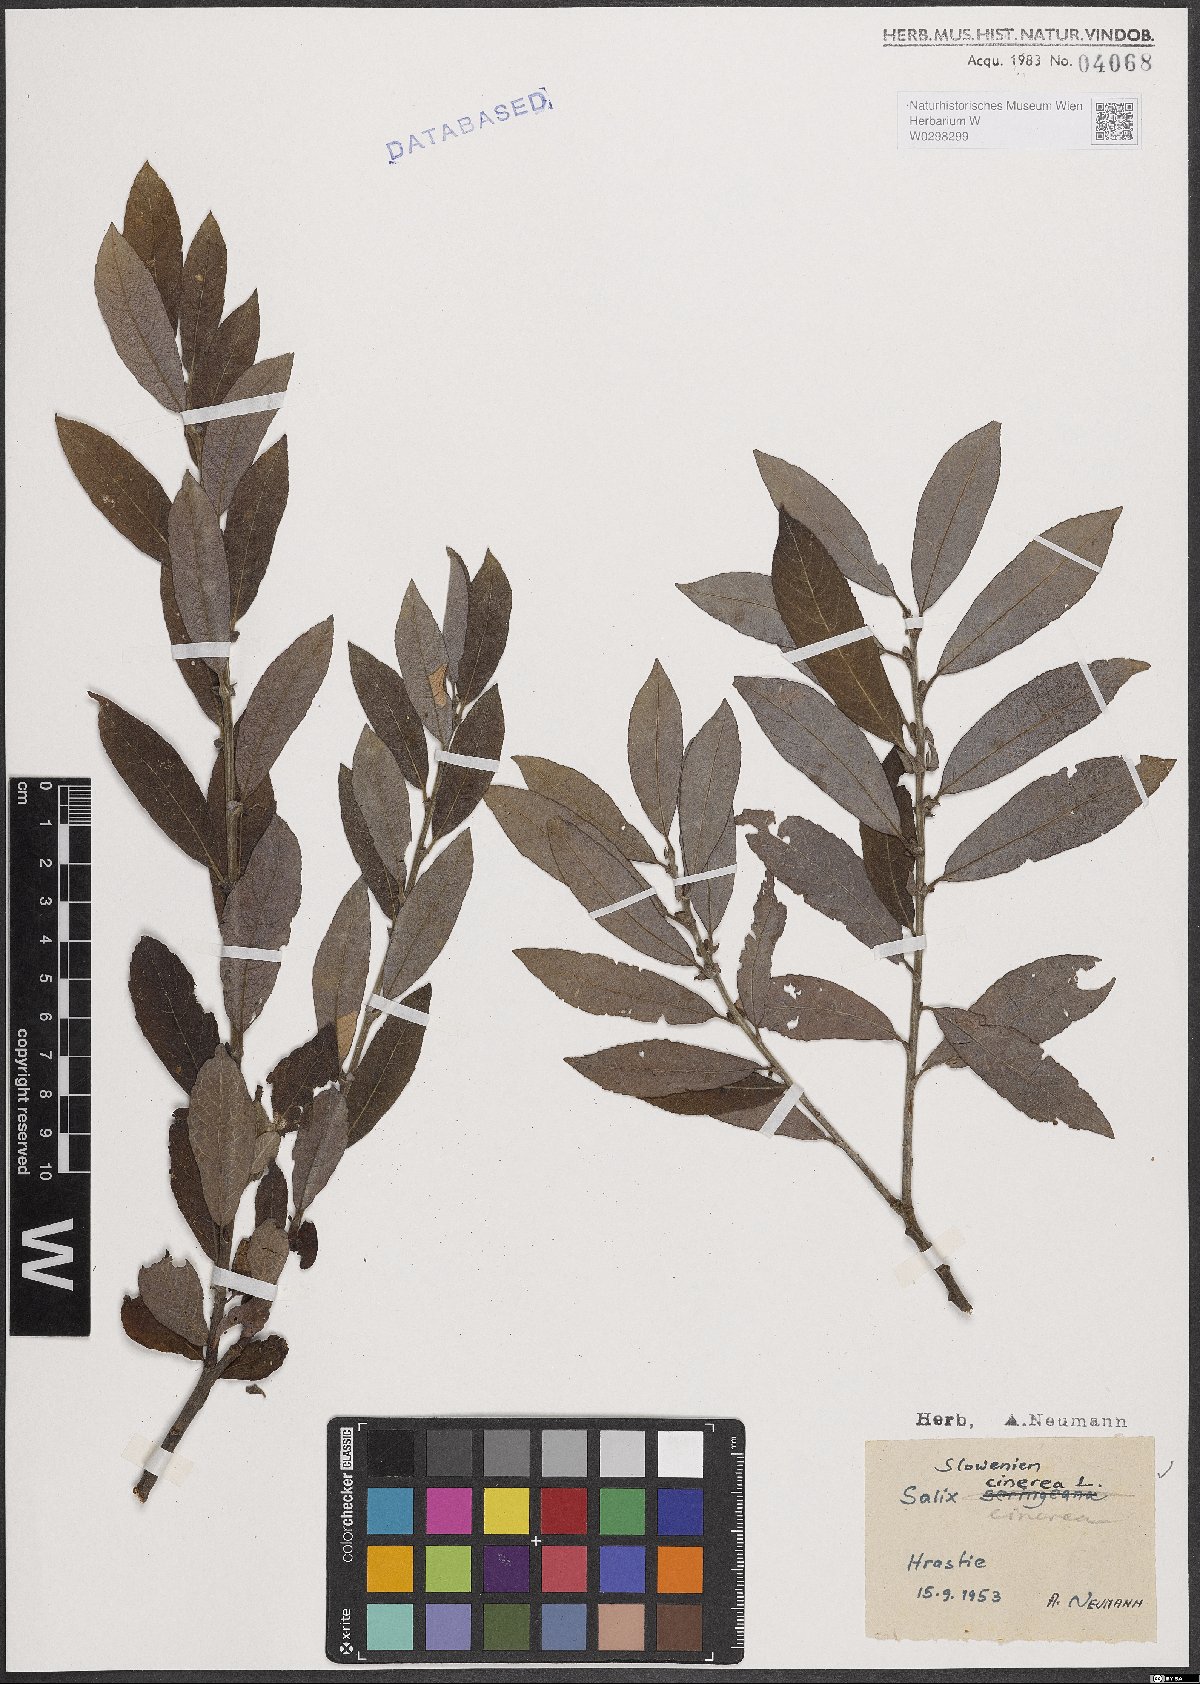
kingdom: Plantae
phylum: Tracheophyta
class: Magnoliopsida
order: Malpighiales
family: Salicaceae
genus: Salix
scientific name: Salix cinerea
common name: Common sallow
